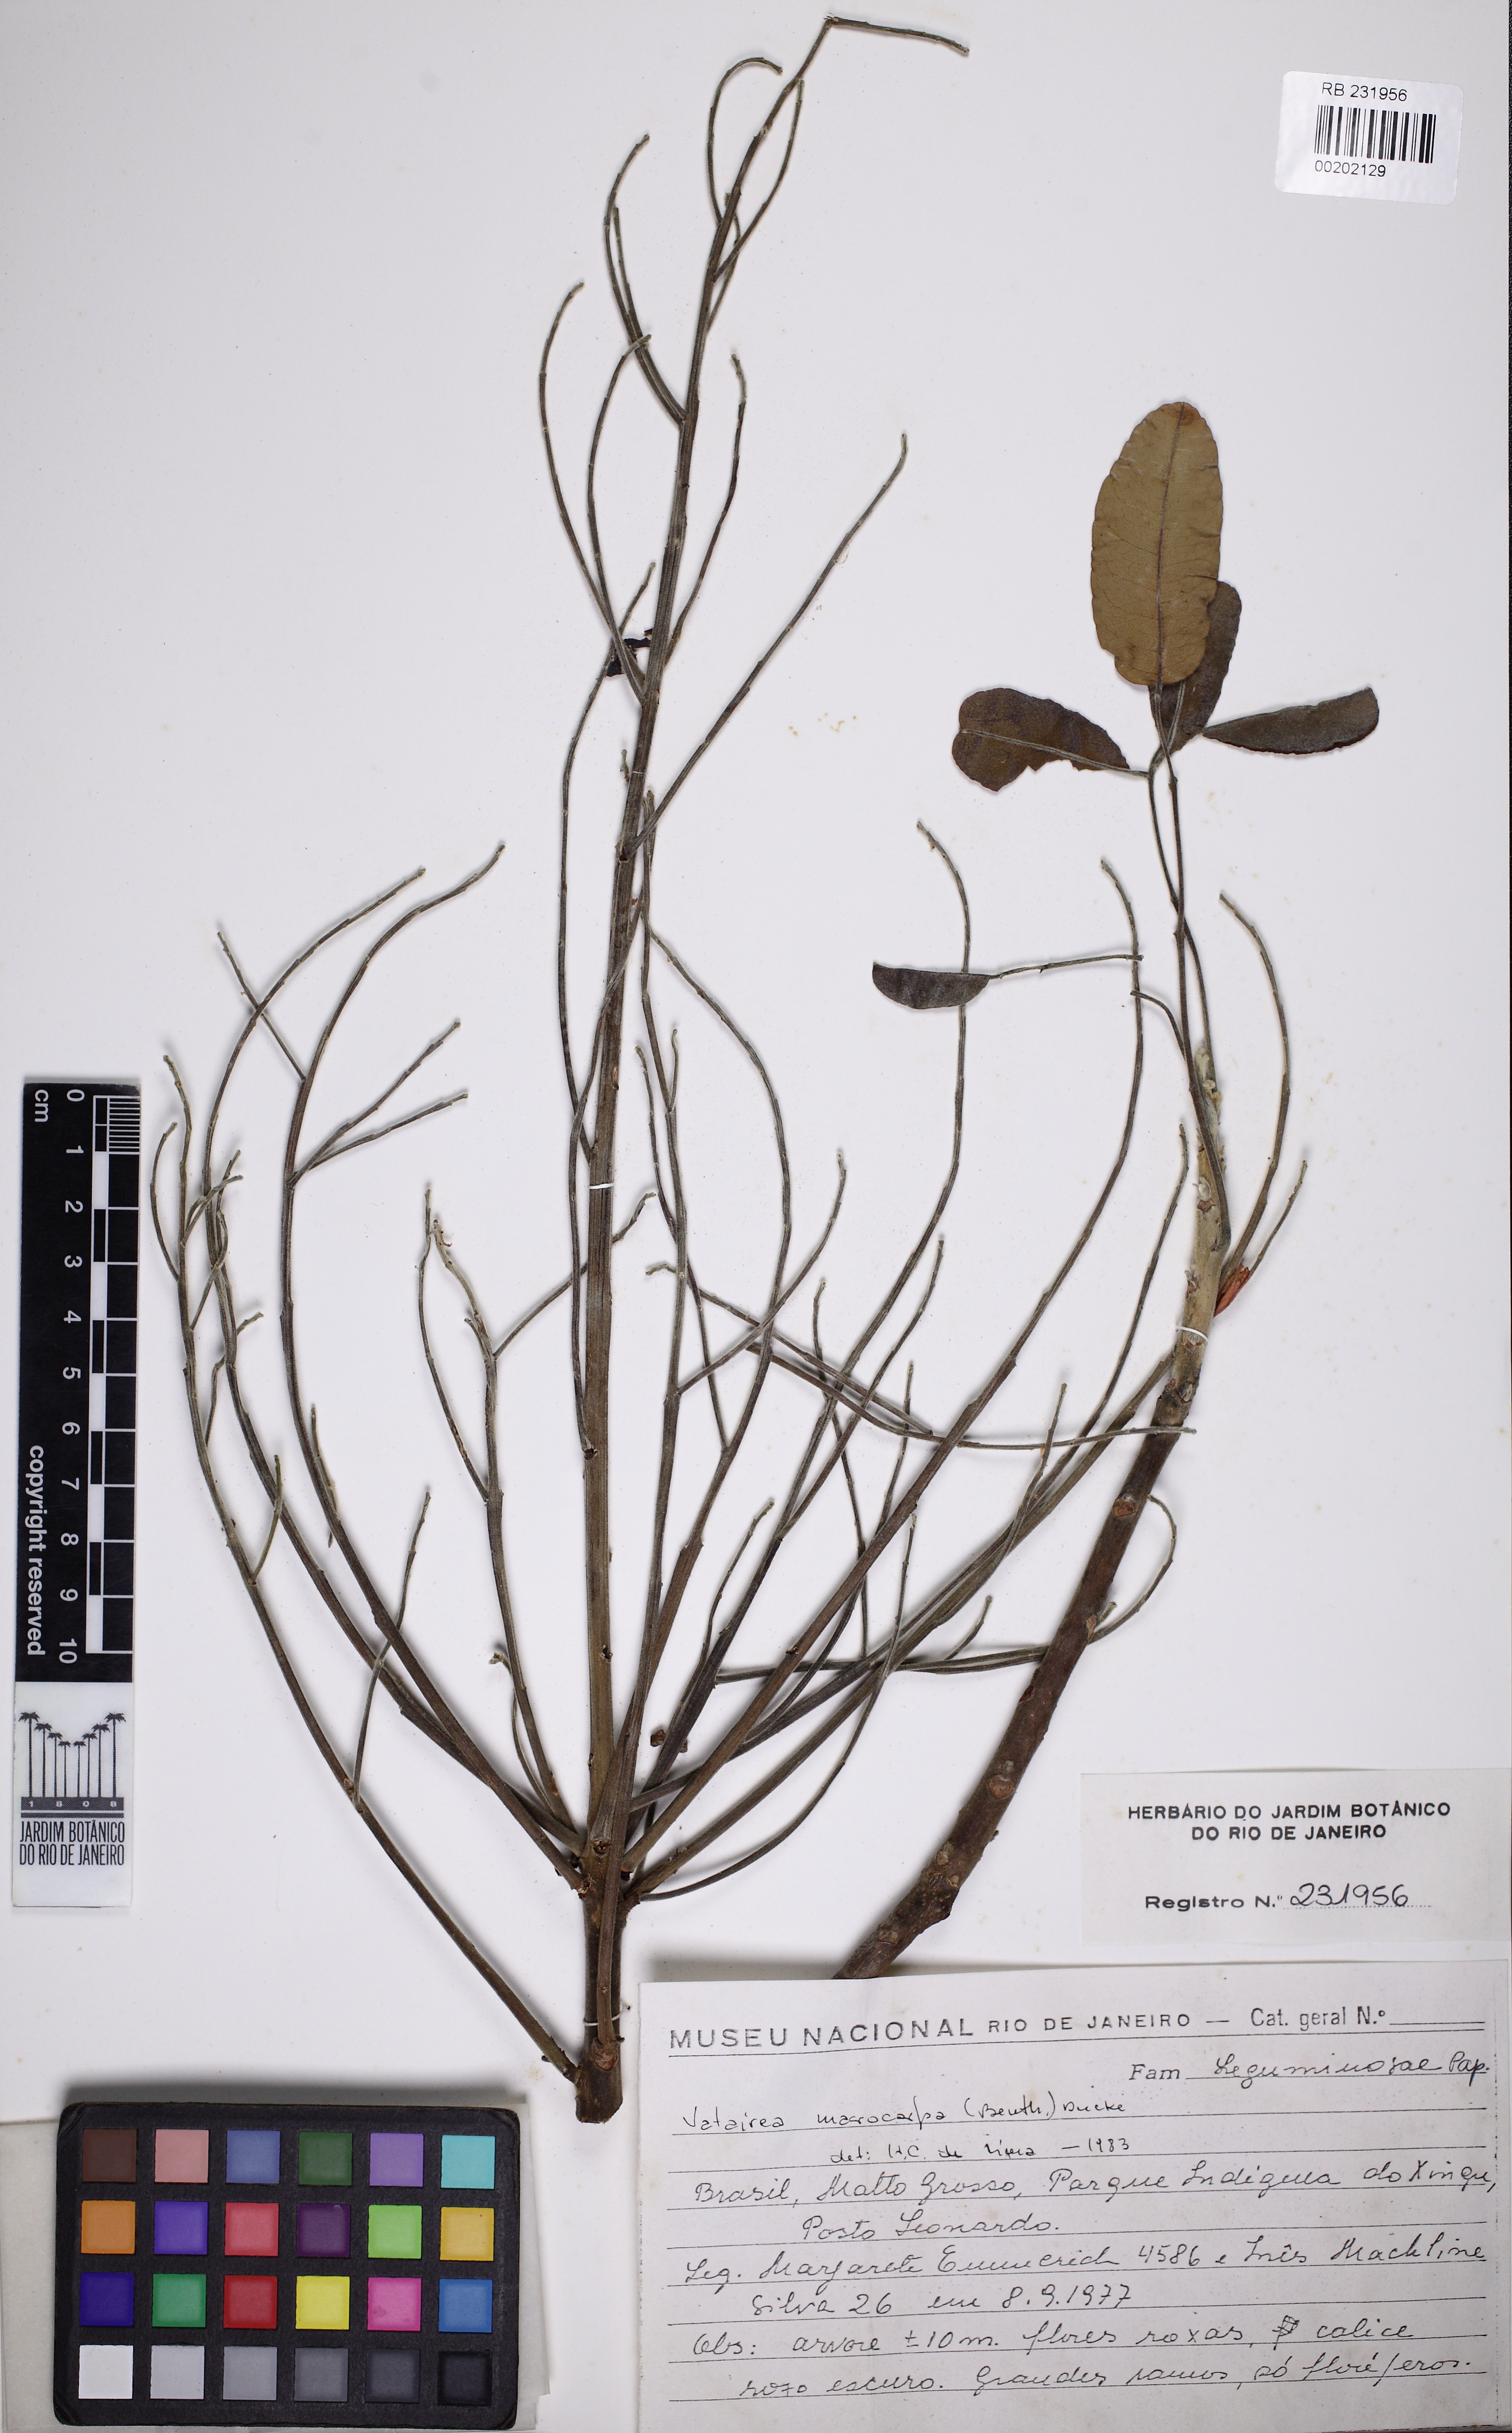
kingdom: Plantae
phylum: Tracheophyta
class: Magnoliopsida
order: Fabales
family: Fabaceae
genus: Vatairea
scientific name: Vatairea macrocarpa
